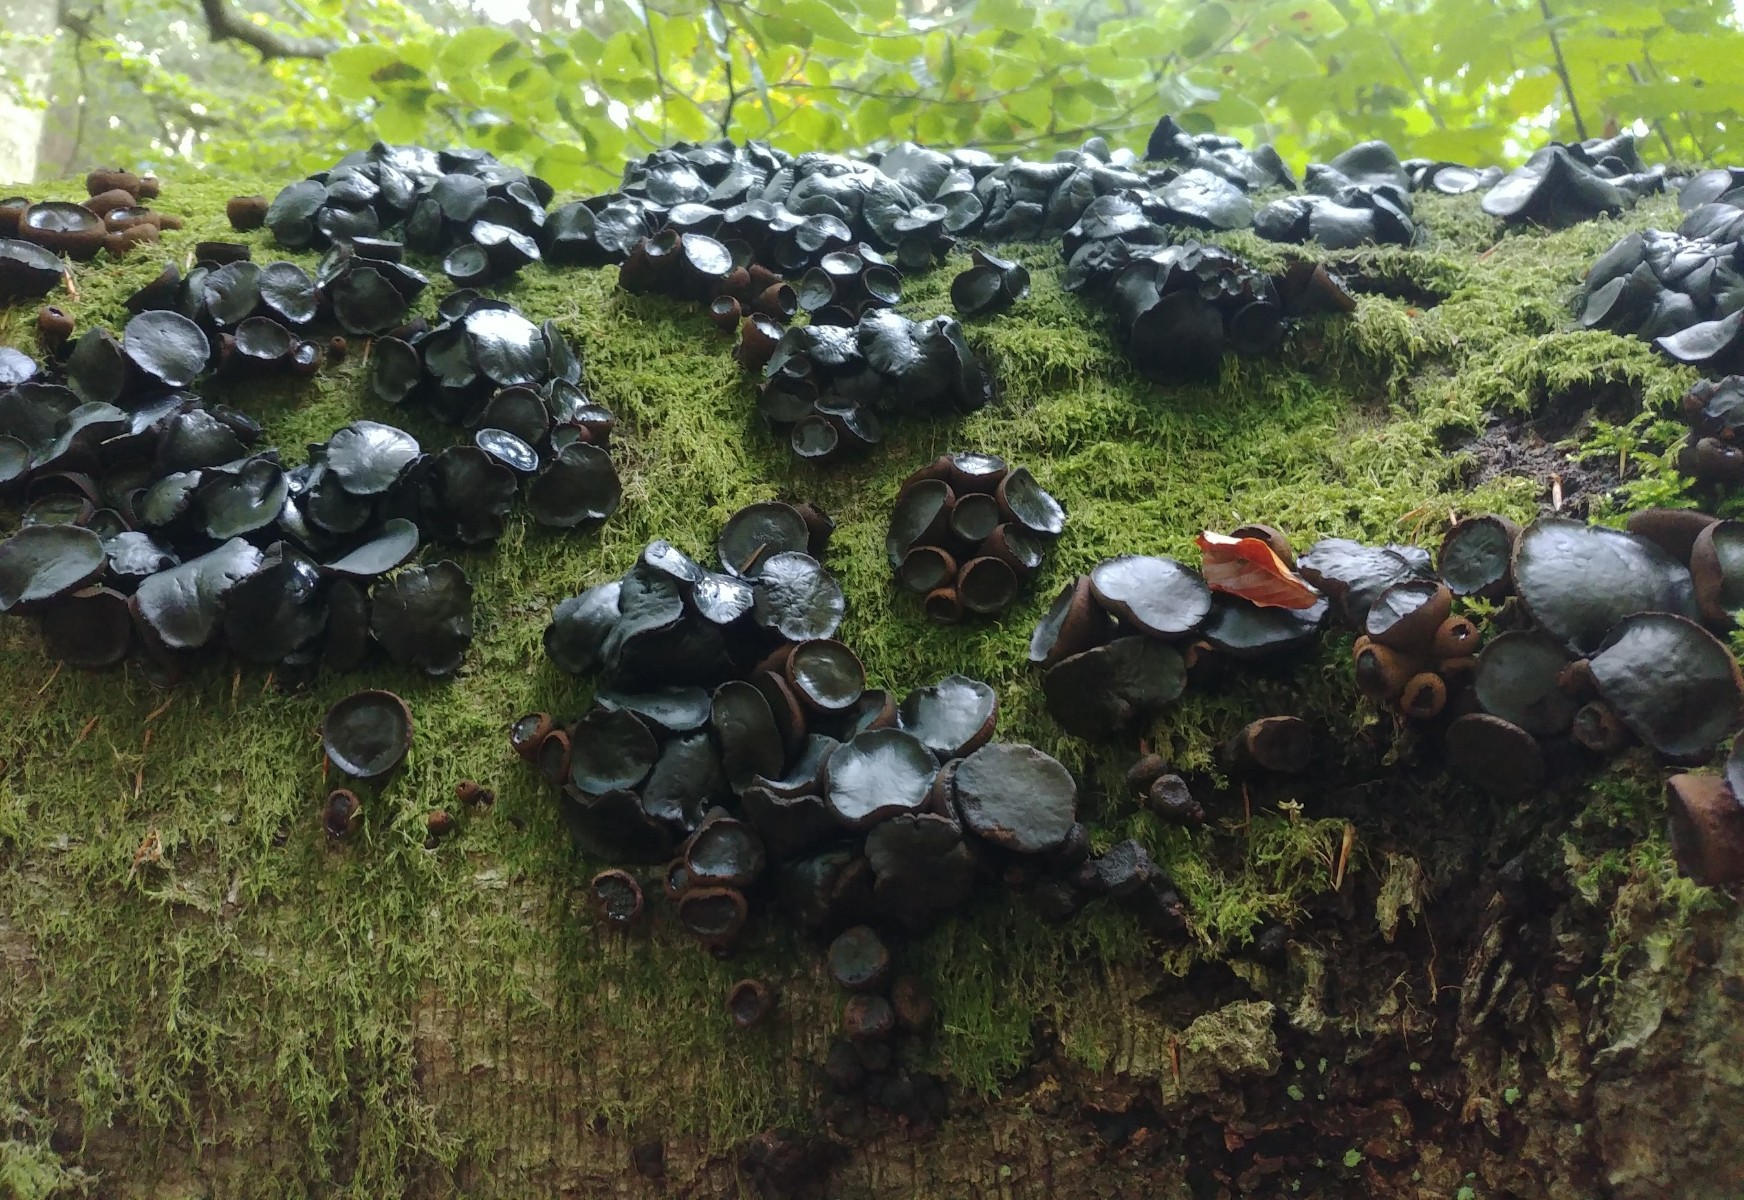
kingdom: Fungi
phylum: Ascomycota
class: Leotiomycetes
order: Phacidiales
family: Phacidiaceae
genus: Bulgaria
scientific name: Bulgaria inquinans
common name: afsmittende topsvamp
